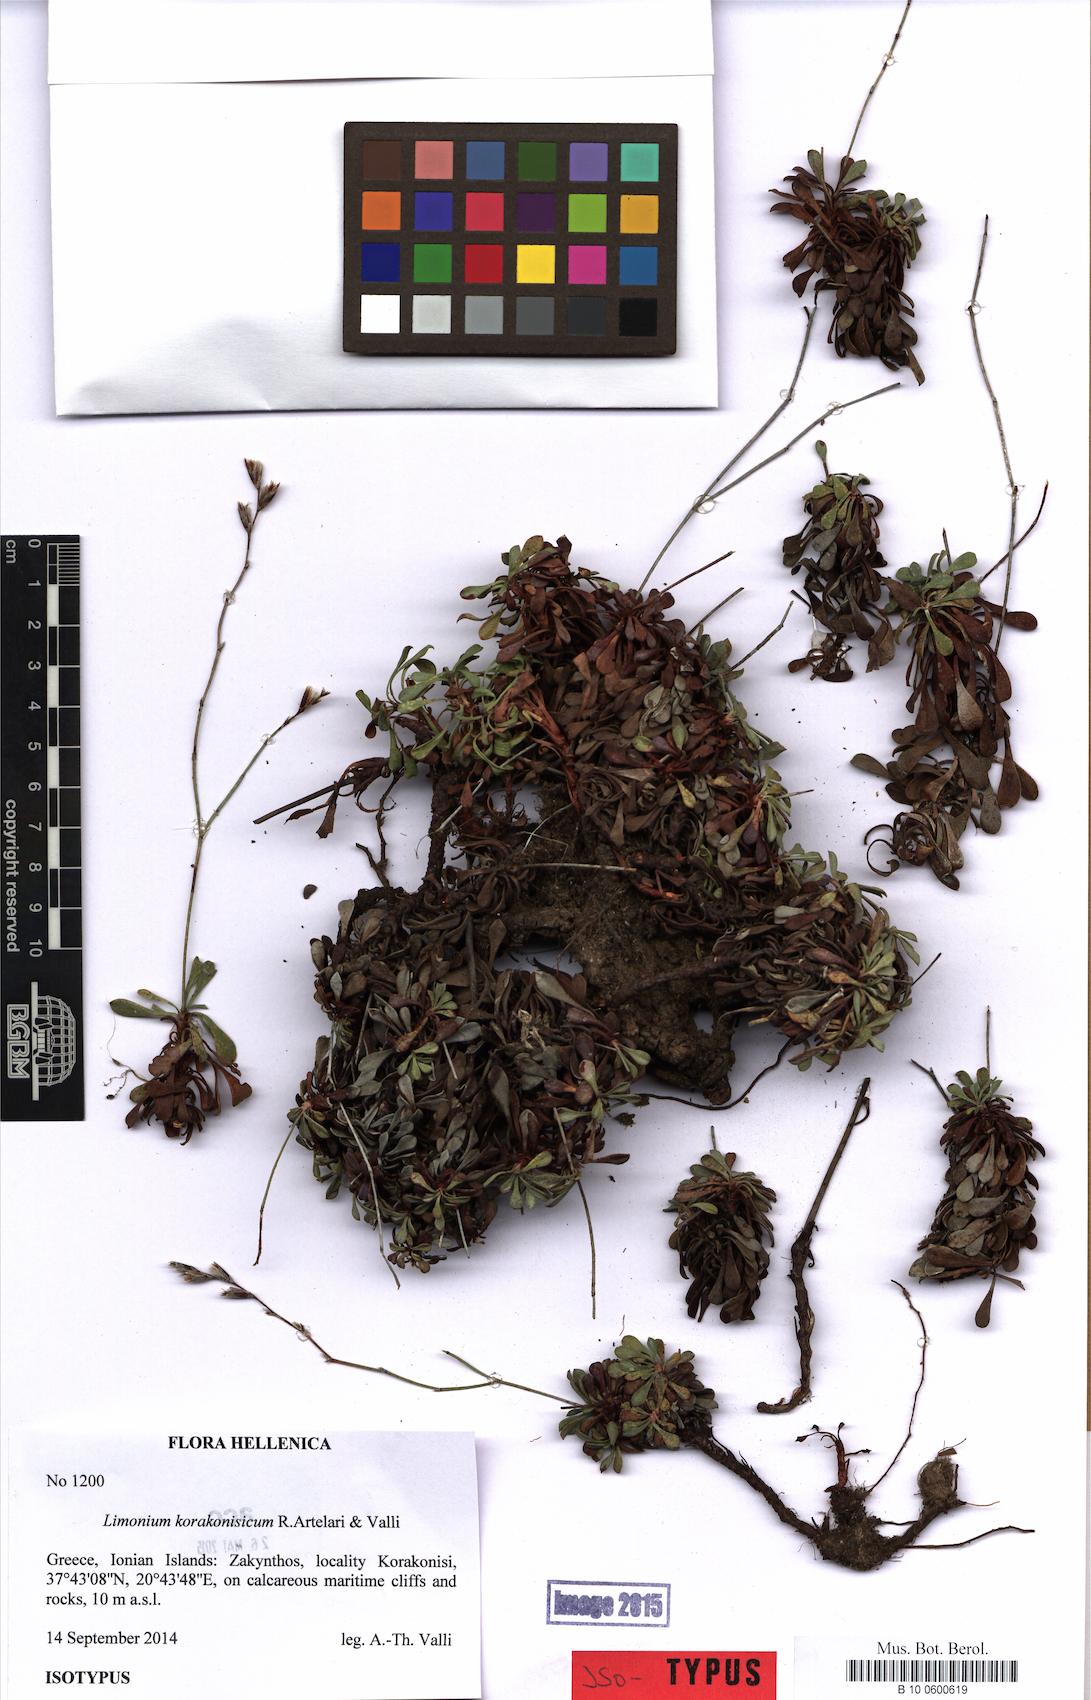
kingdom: Plantae
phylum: Tracheophyta
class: Magnoliopsida
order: Caryophyllales
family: Plumbaginaceae
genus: Limonium
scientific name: Limonium korakonisicum
